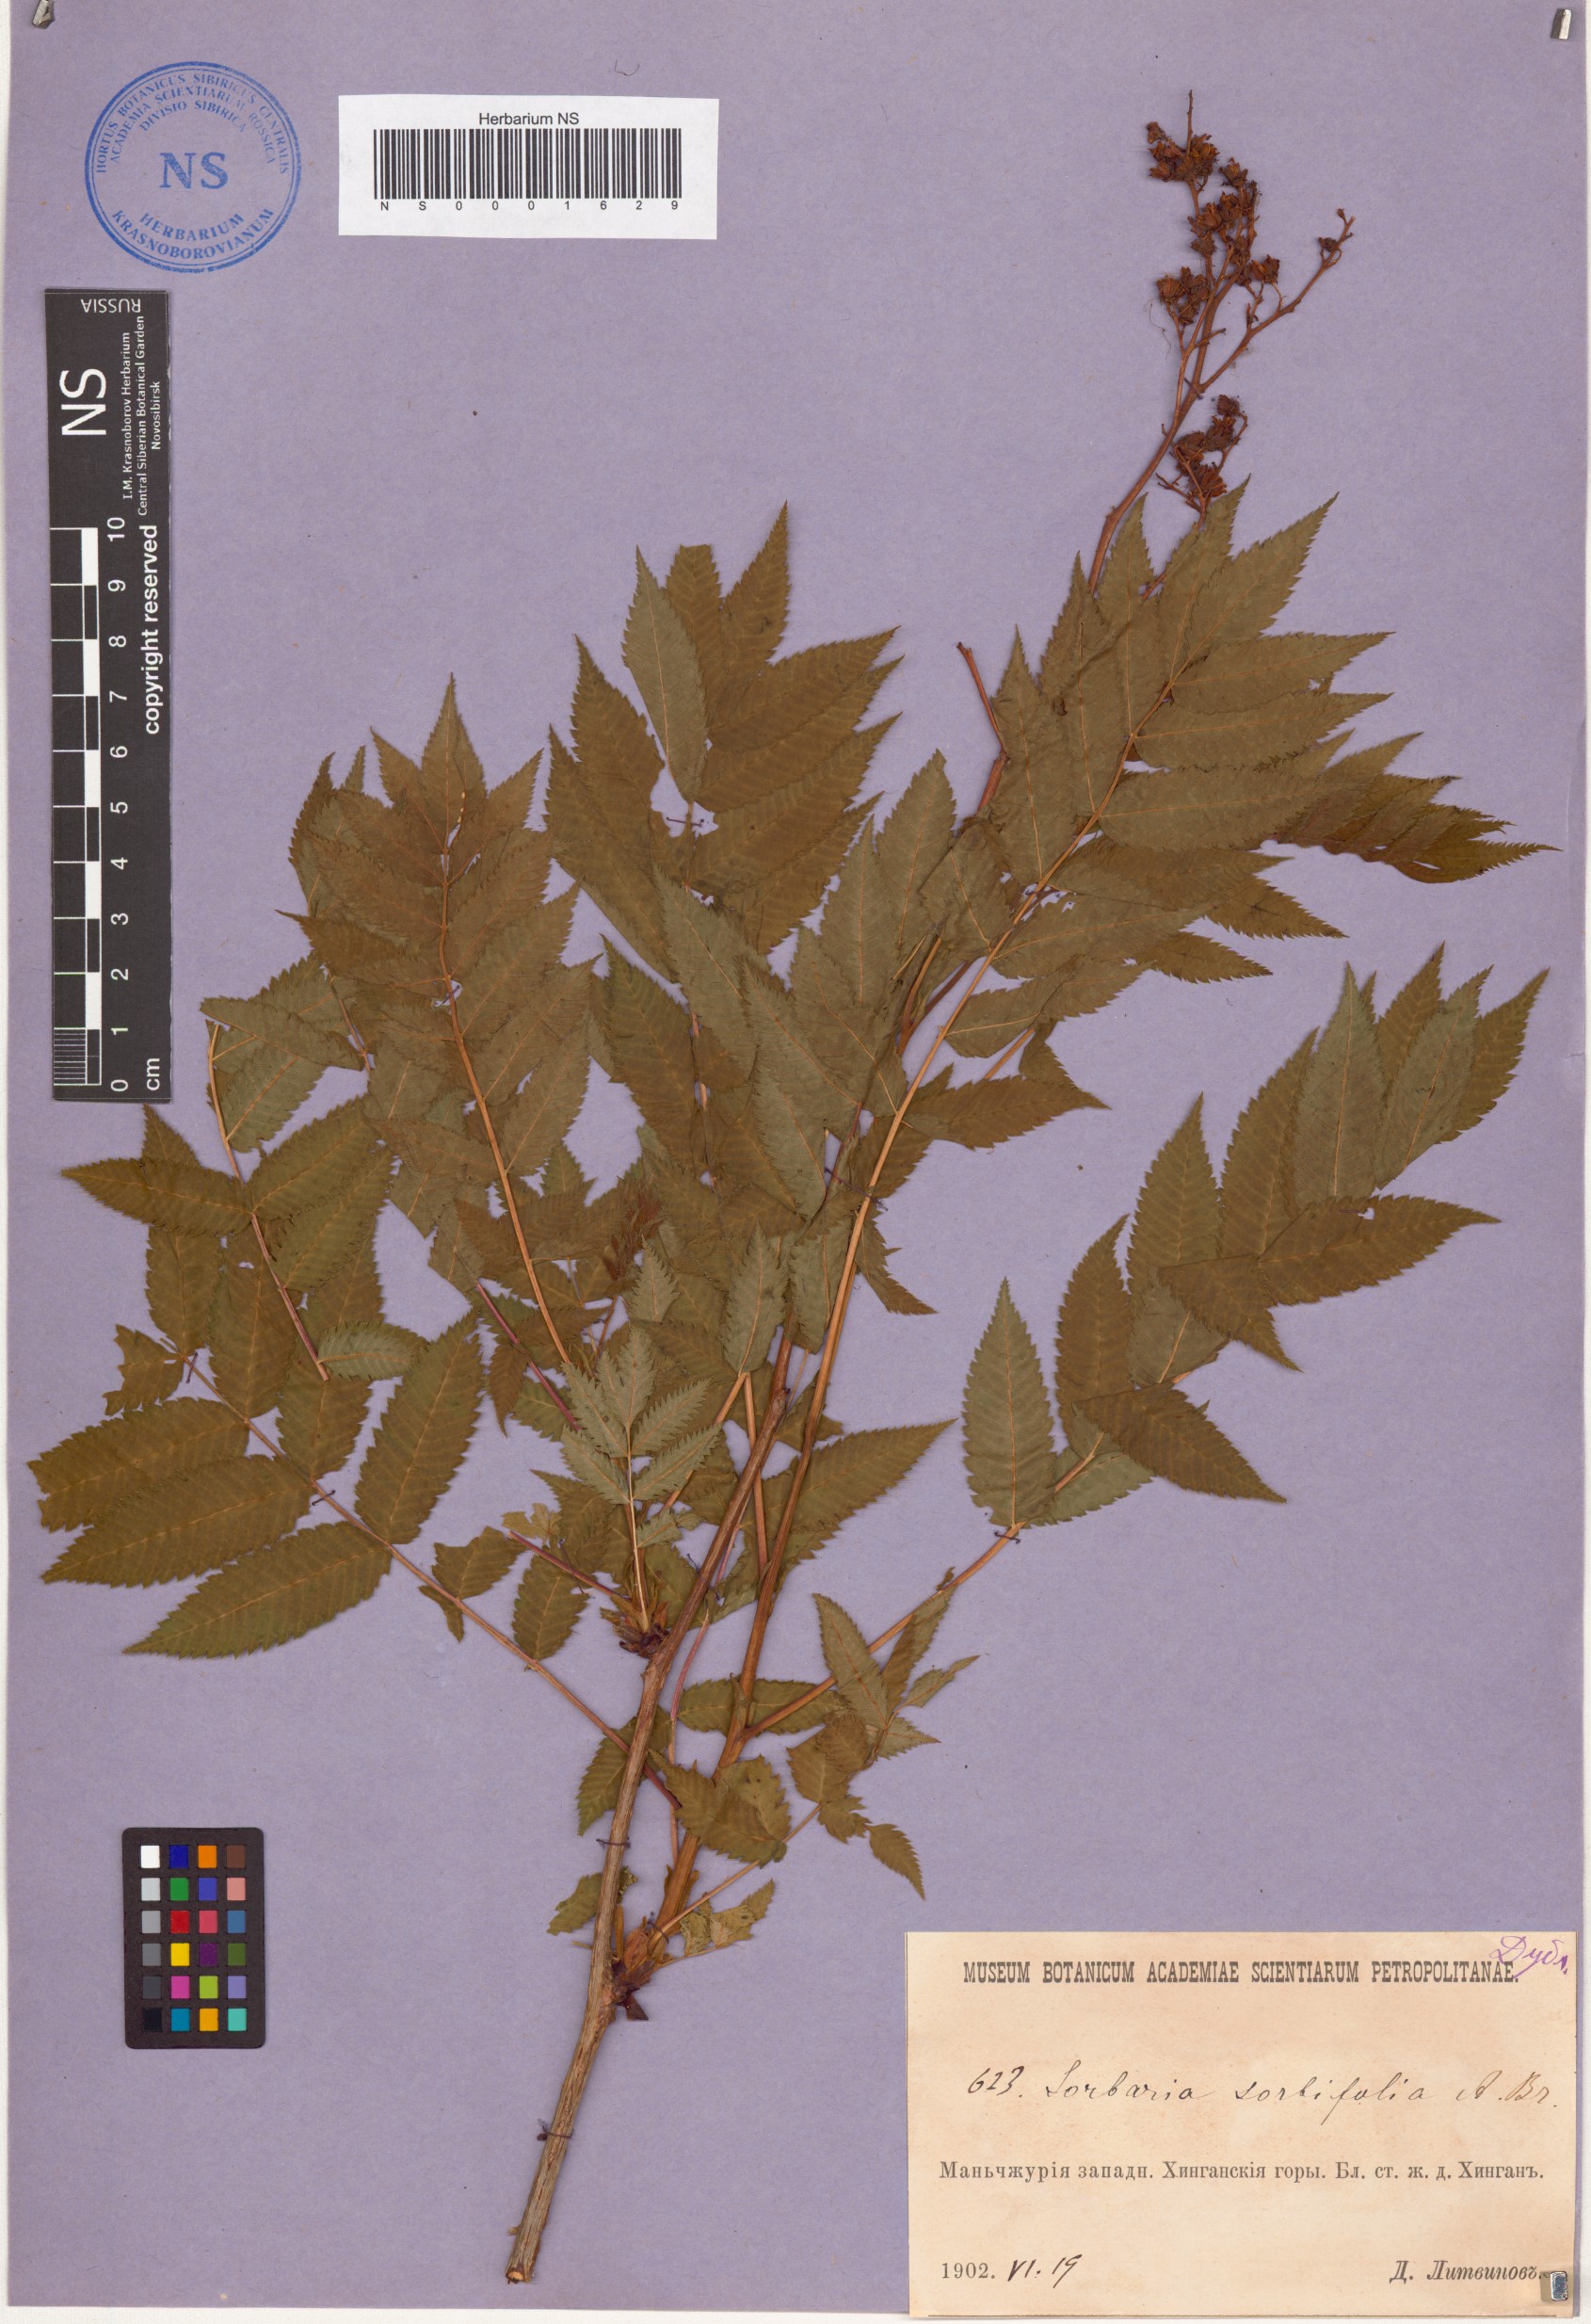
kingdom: Plantae
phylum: Tracheophyta
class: Magnoliopsida
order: Rosales
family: Rosaceae
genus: Sorbaria
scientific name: Sorbaria sorbifolia
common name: False spiraea
